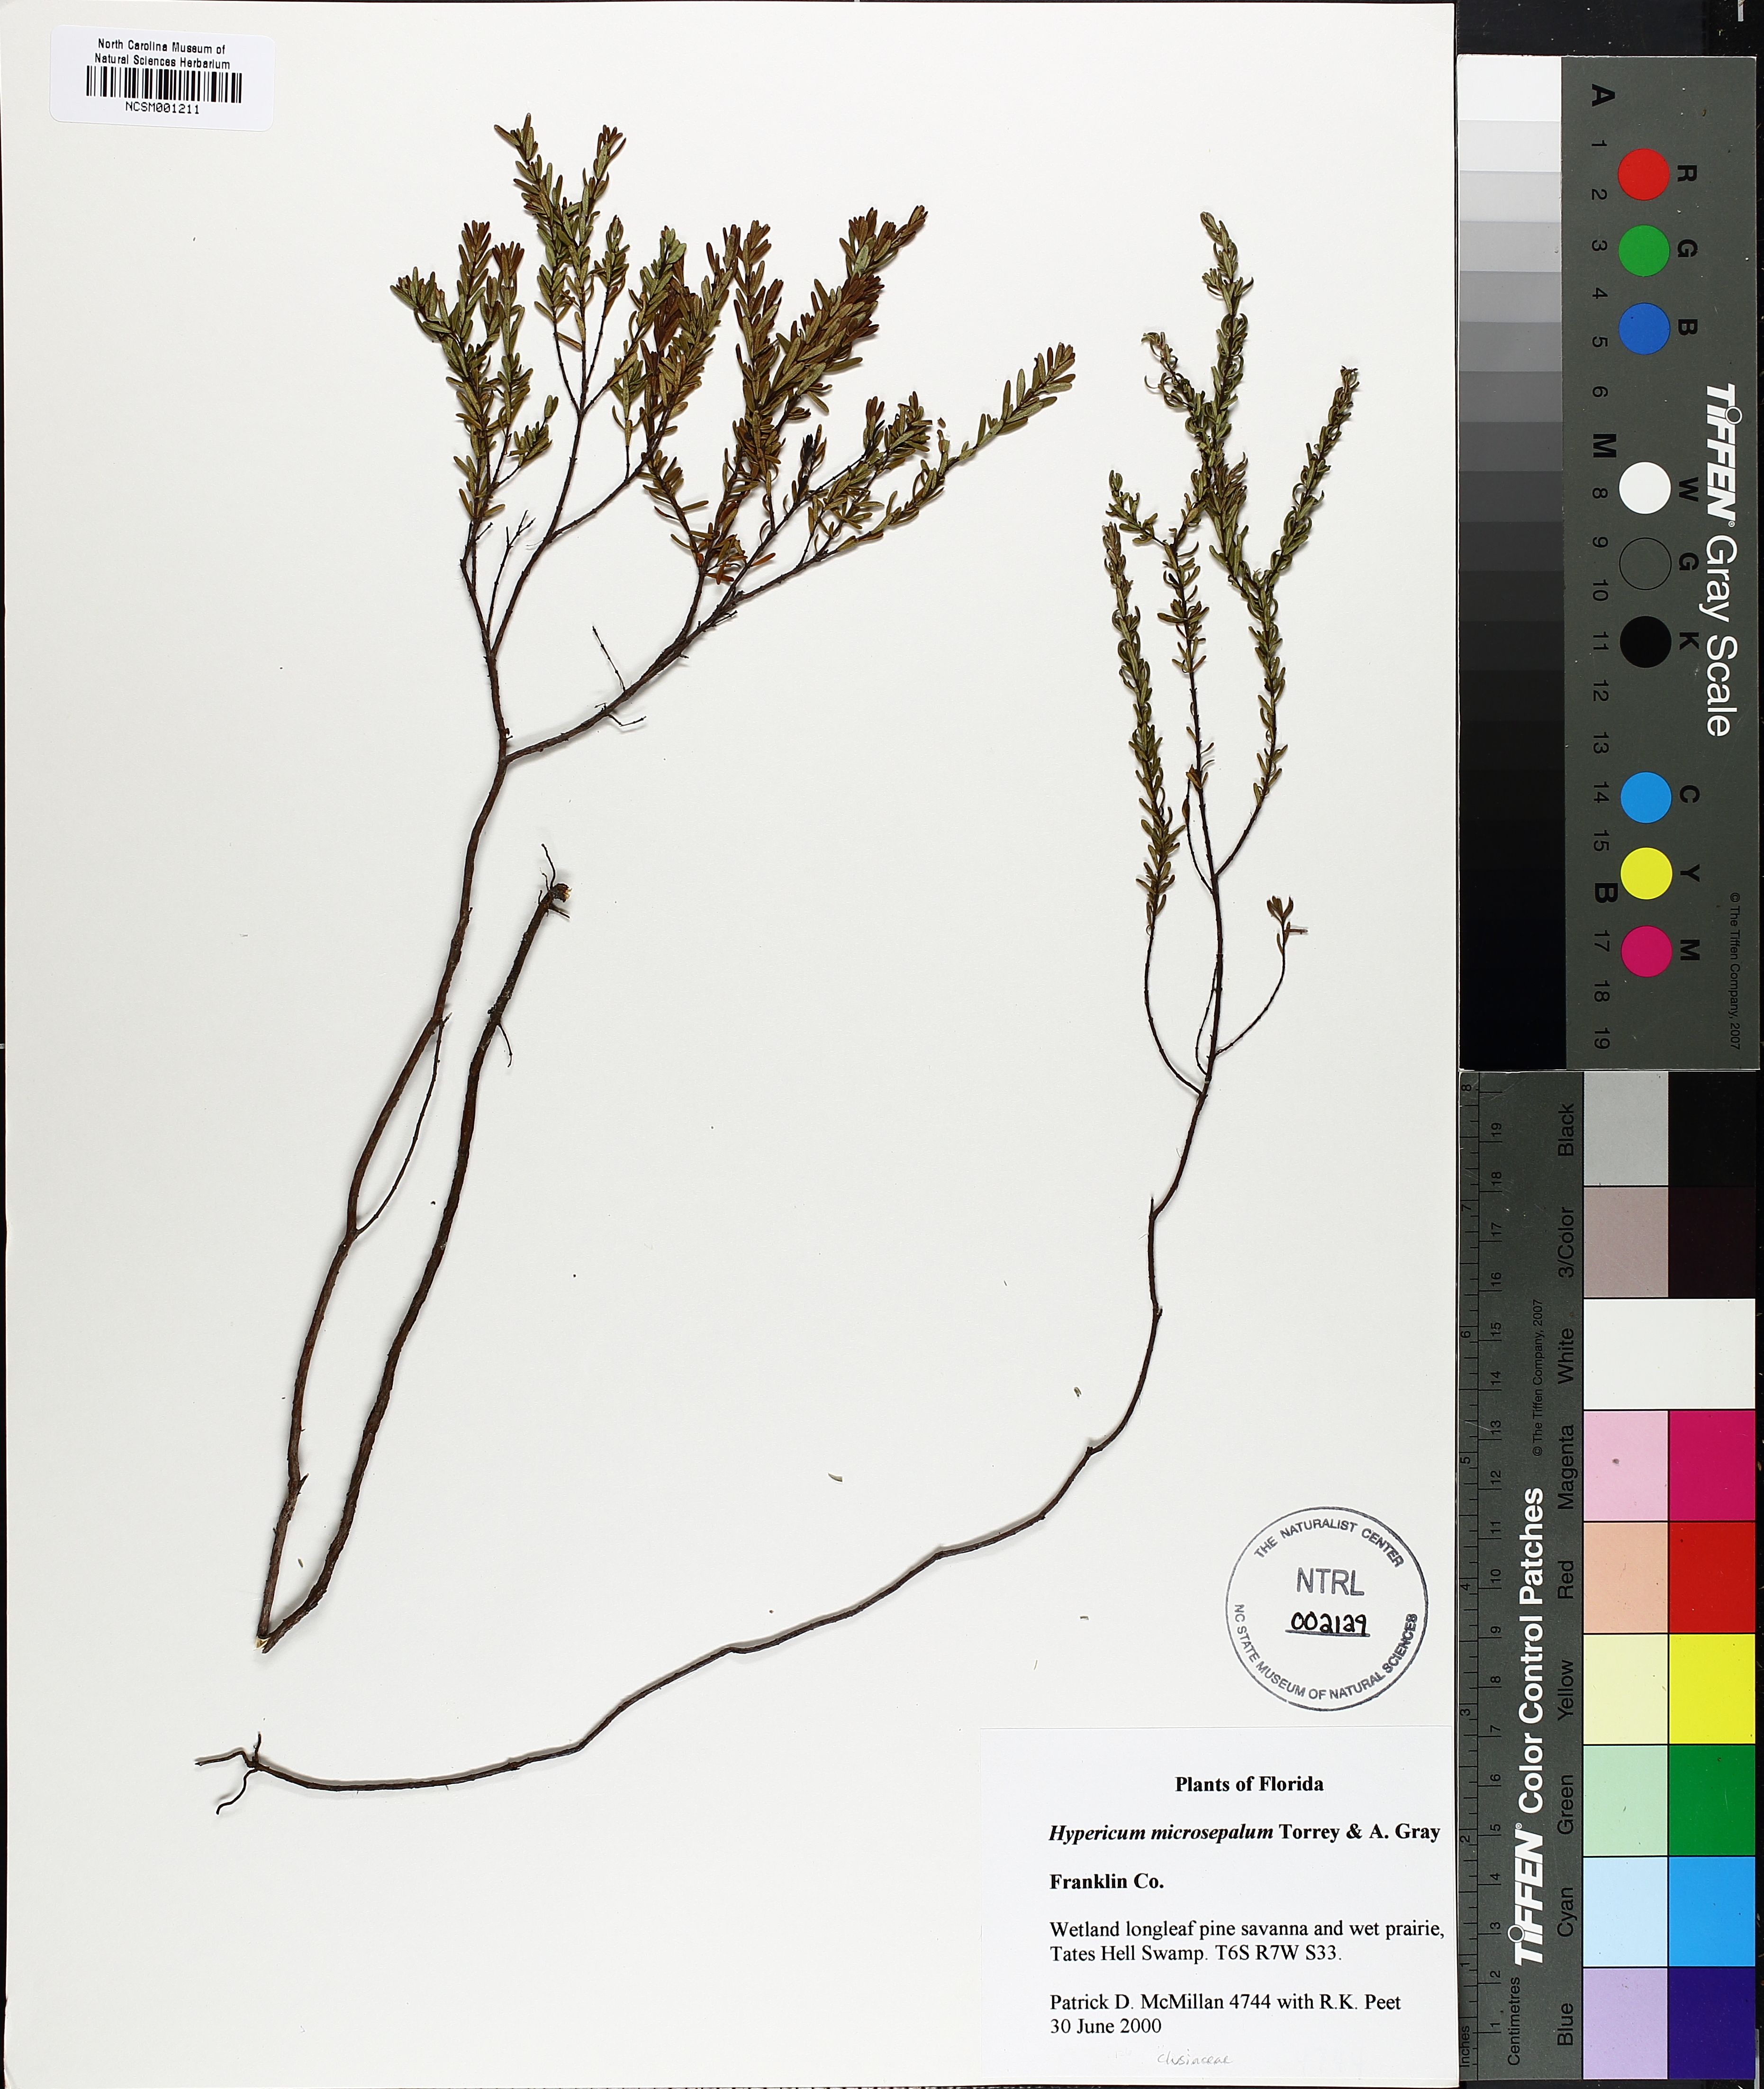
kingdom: Plantae
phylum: Tracheophyta
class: Magnoliopsida
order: Malpighiales
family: Hypericaceae
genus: Hypericum
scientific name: Hypericum microsepalum
